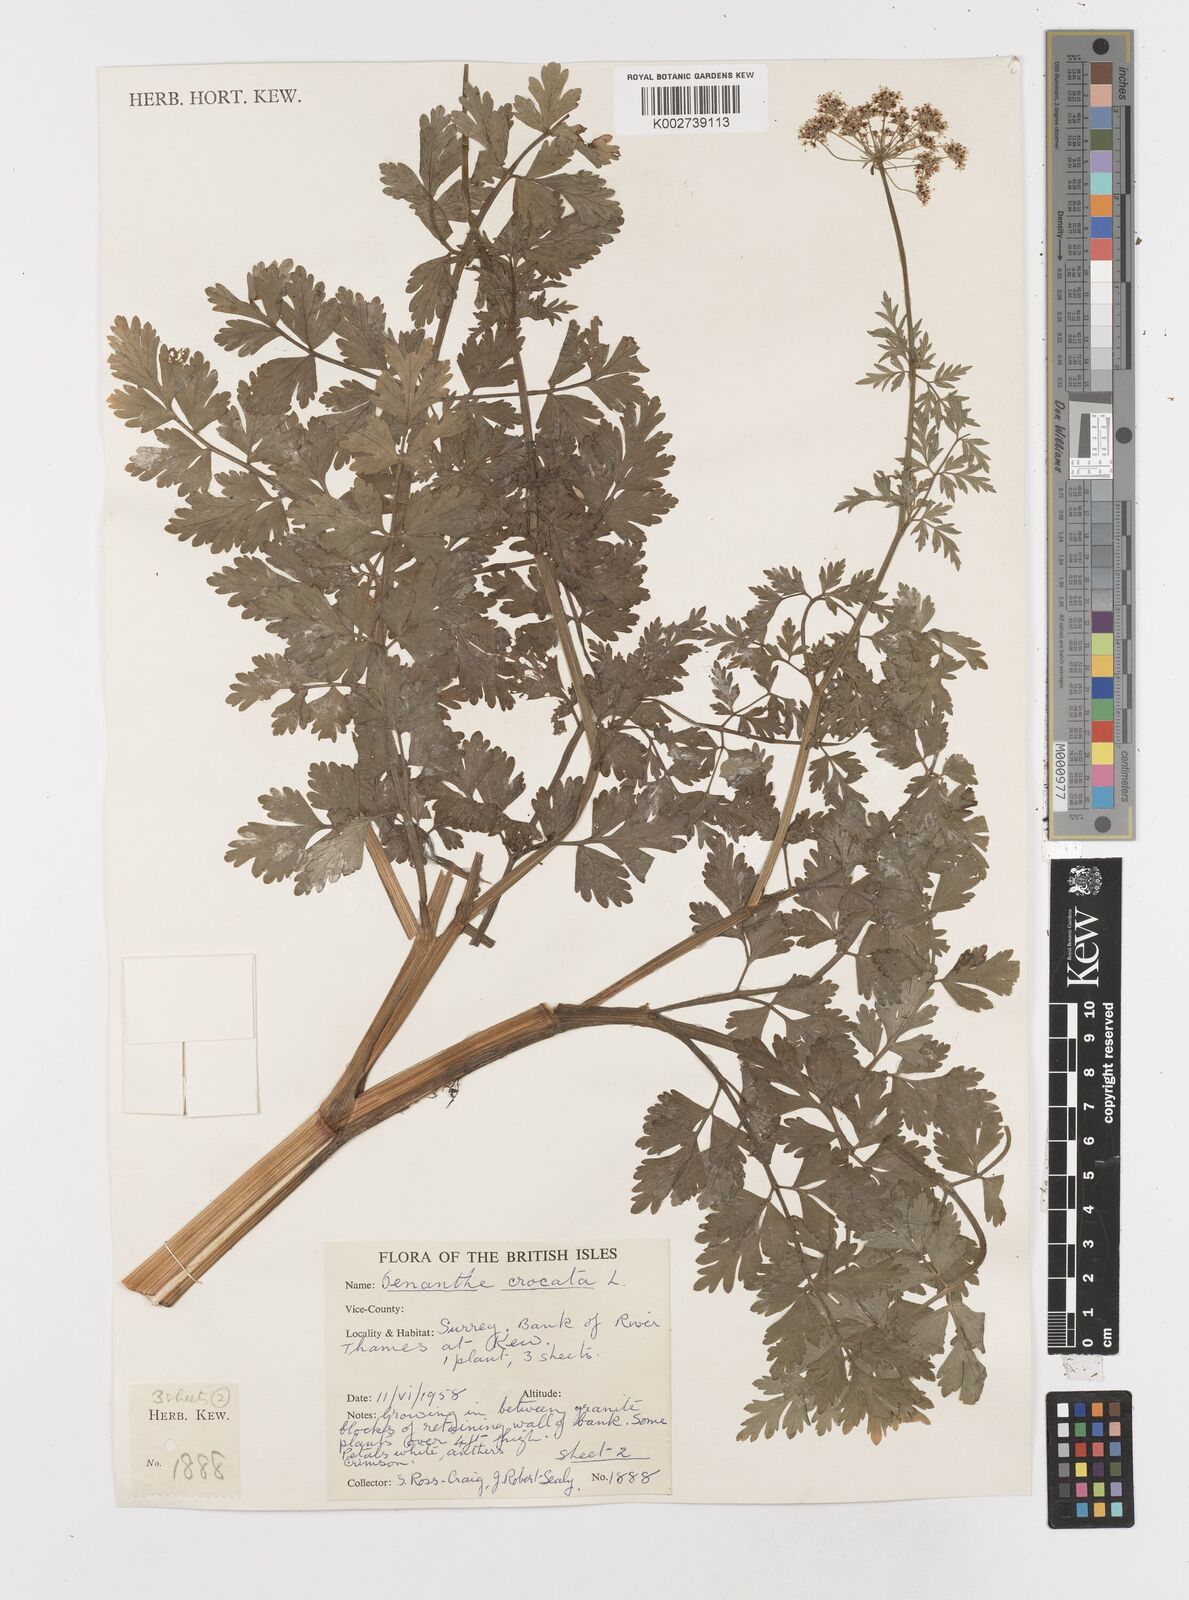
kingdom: Plantae
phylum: Tracheophyta
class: Magnoliopsida
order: Apiales
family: Apiaceae
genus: Oenanthe
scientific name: Oenanthe crocata
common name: Hemlock water-dropwort
